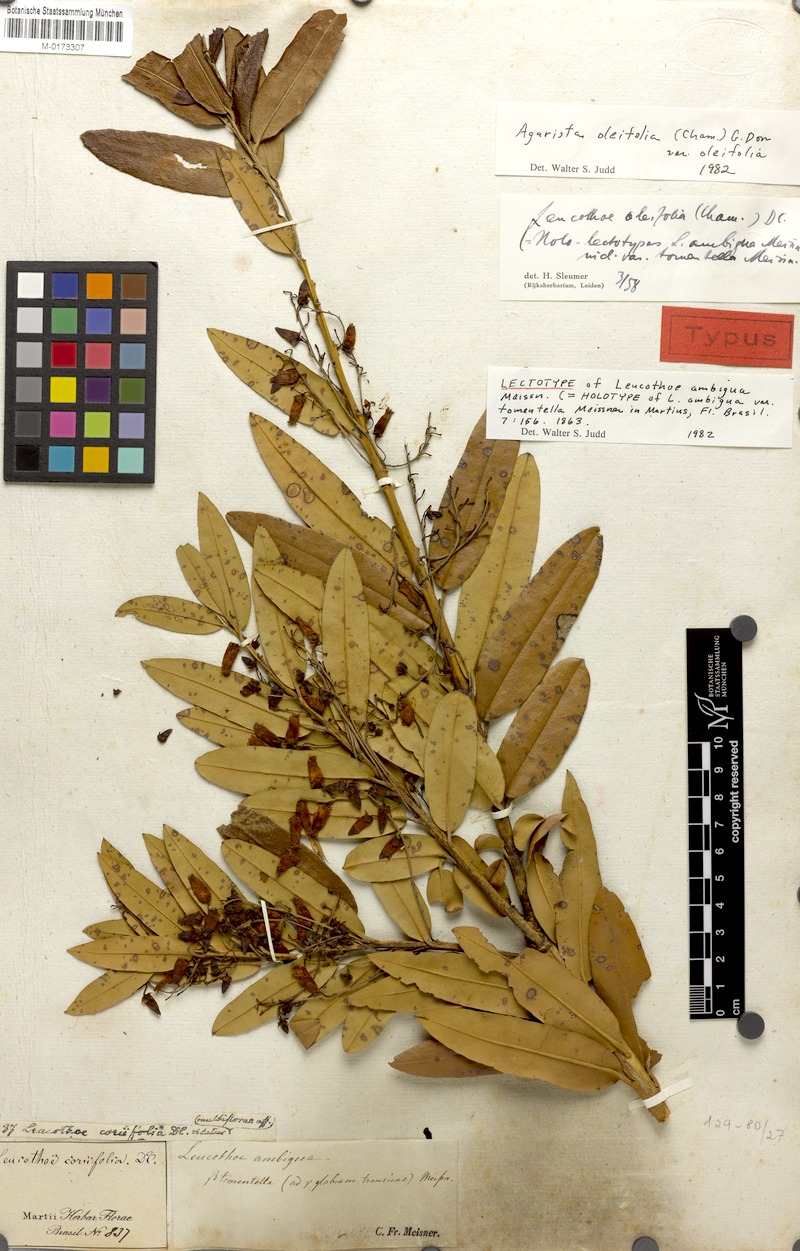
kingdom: Plantae
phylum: Tracheophyta
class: Magnoliopsida
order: Ericales
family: Ericaceae
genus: Agarista
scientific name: Agarista oleifolia
